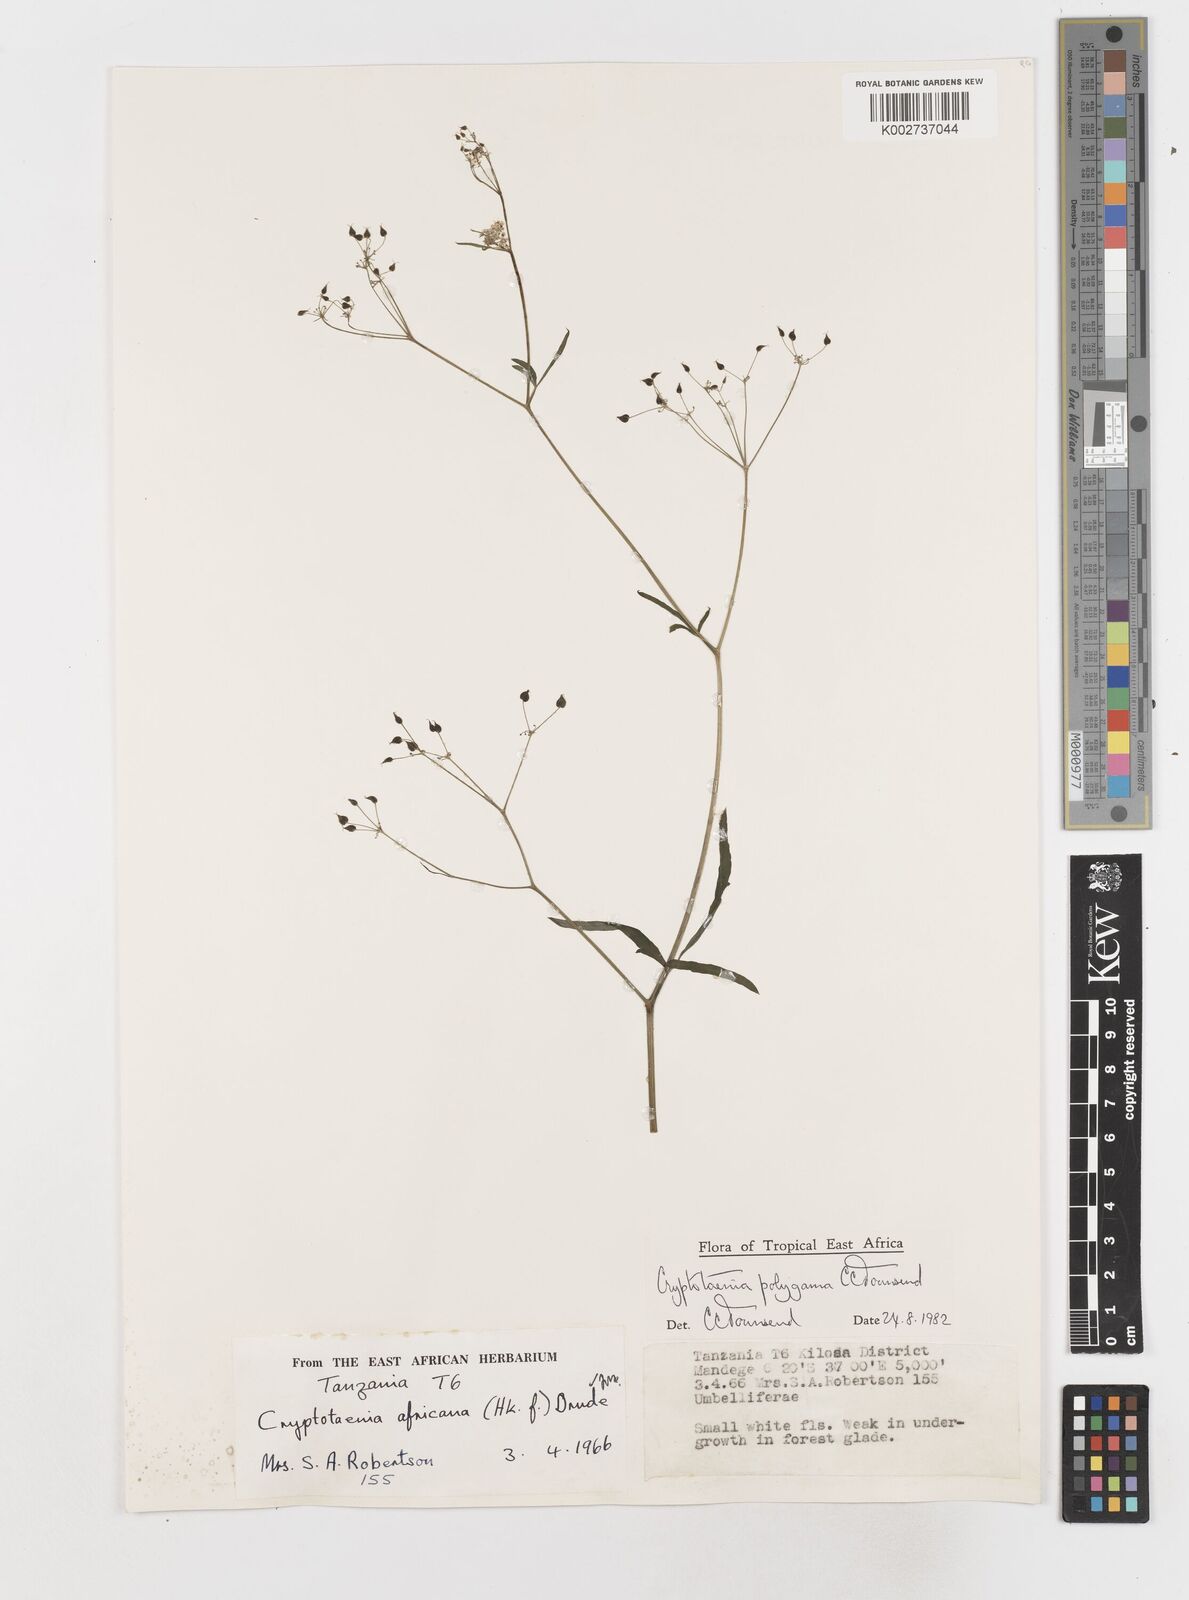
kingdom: Plantae
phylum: Tracheophyta
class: Magnoliopsida
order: Apiales
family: Apiaceae
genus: Cryptotaenia
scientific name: Cryptotaenia polygama
